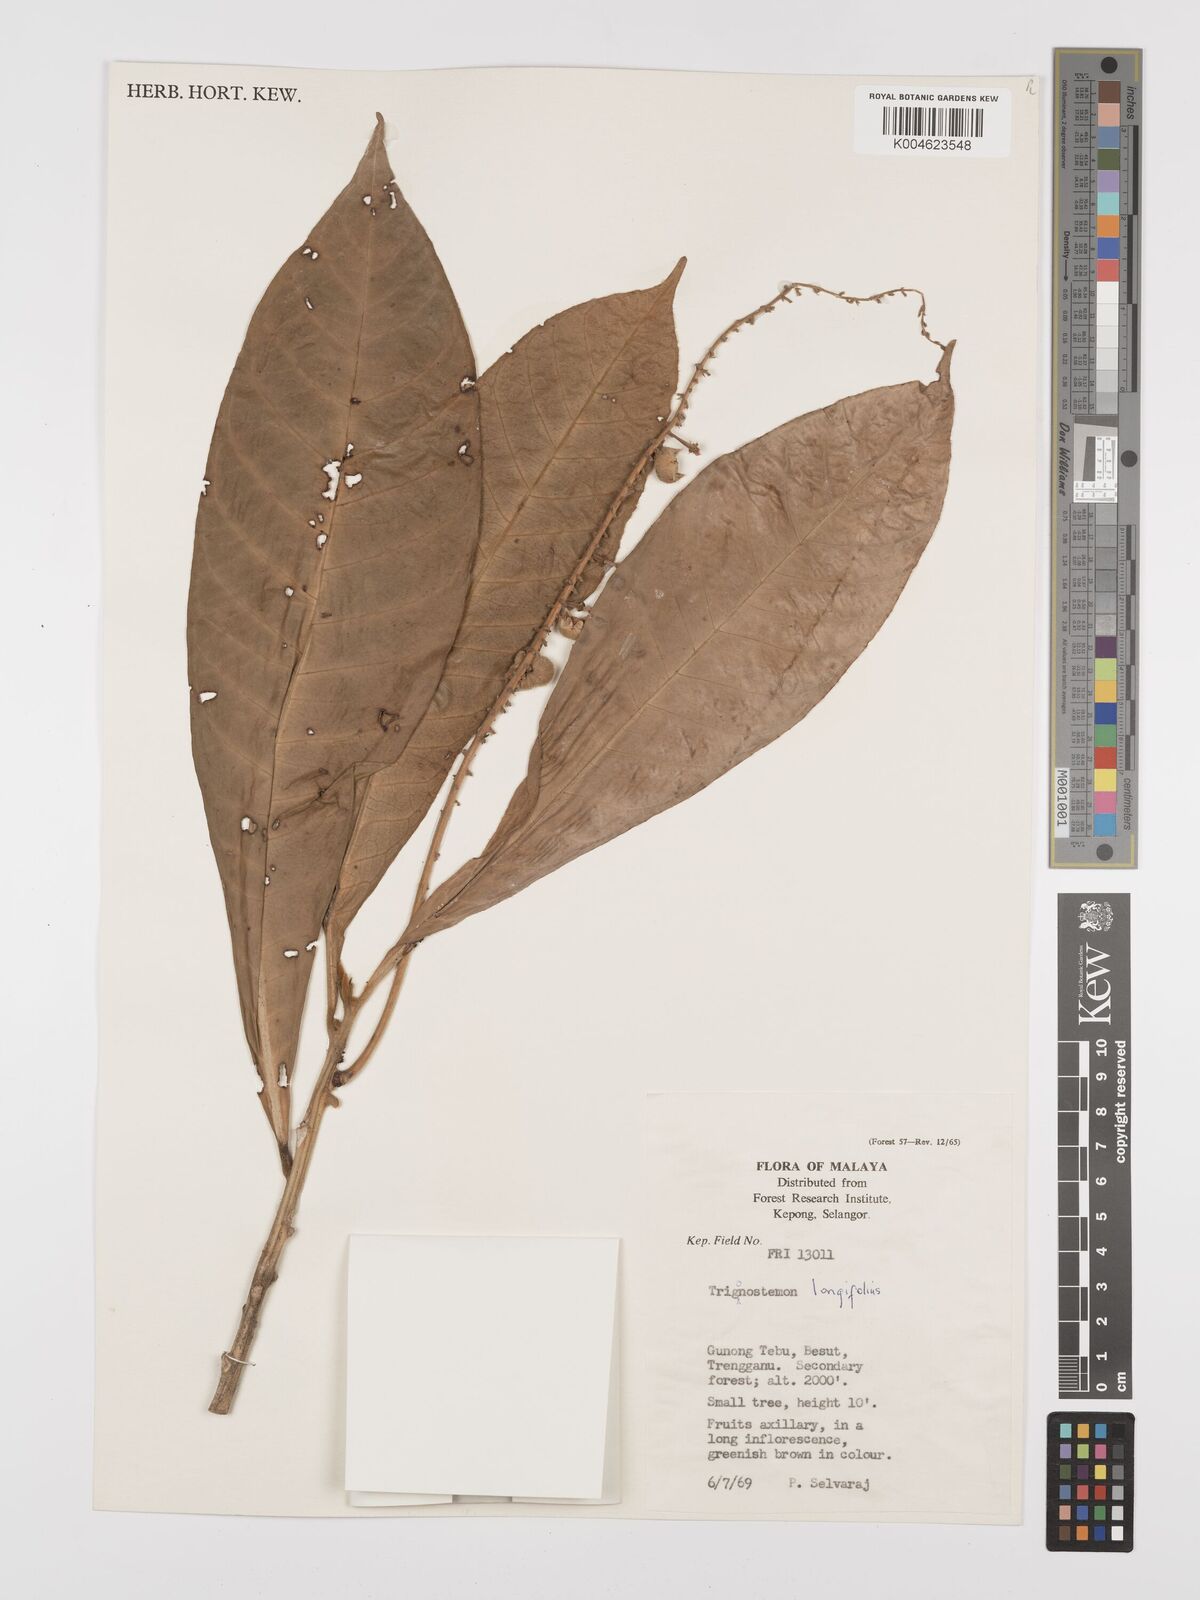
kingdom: Plantae
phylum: Tracheophyta
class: Magnoliopsida
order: Malpighiales
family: Euphorbiaceae
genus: Trigonostemon
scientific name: Trigonostemon longifolius
